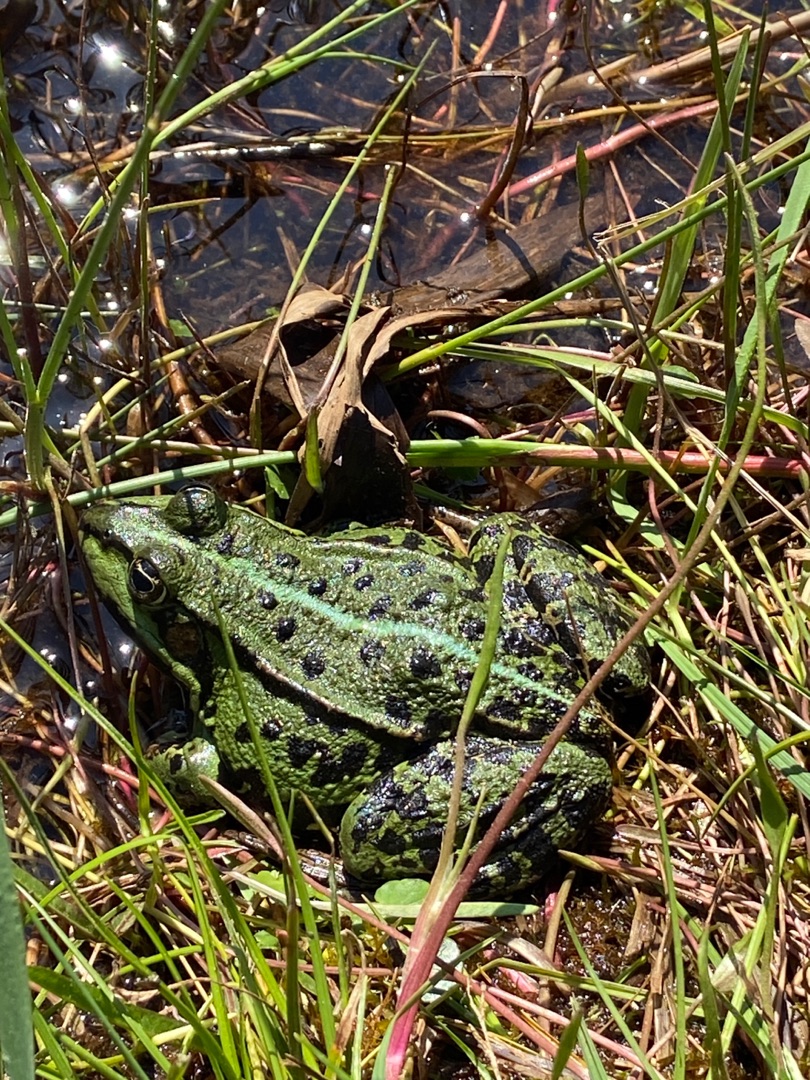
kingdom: Animalia
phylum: Chordata
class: Amphibia
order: Anura
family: Ranidae
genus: Pelophylax
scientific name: Pelophylax lessonae
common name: Grøn frø
